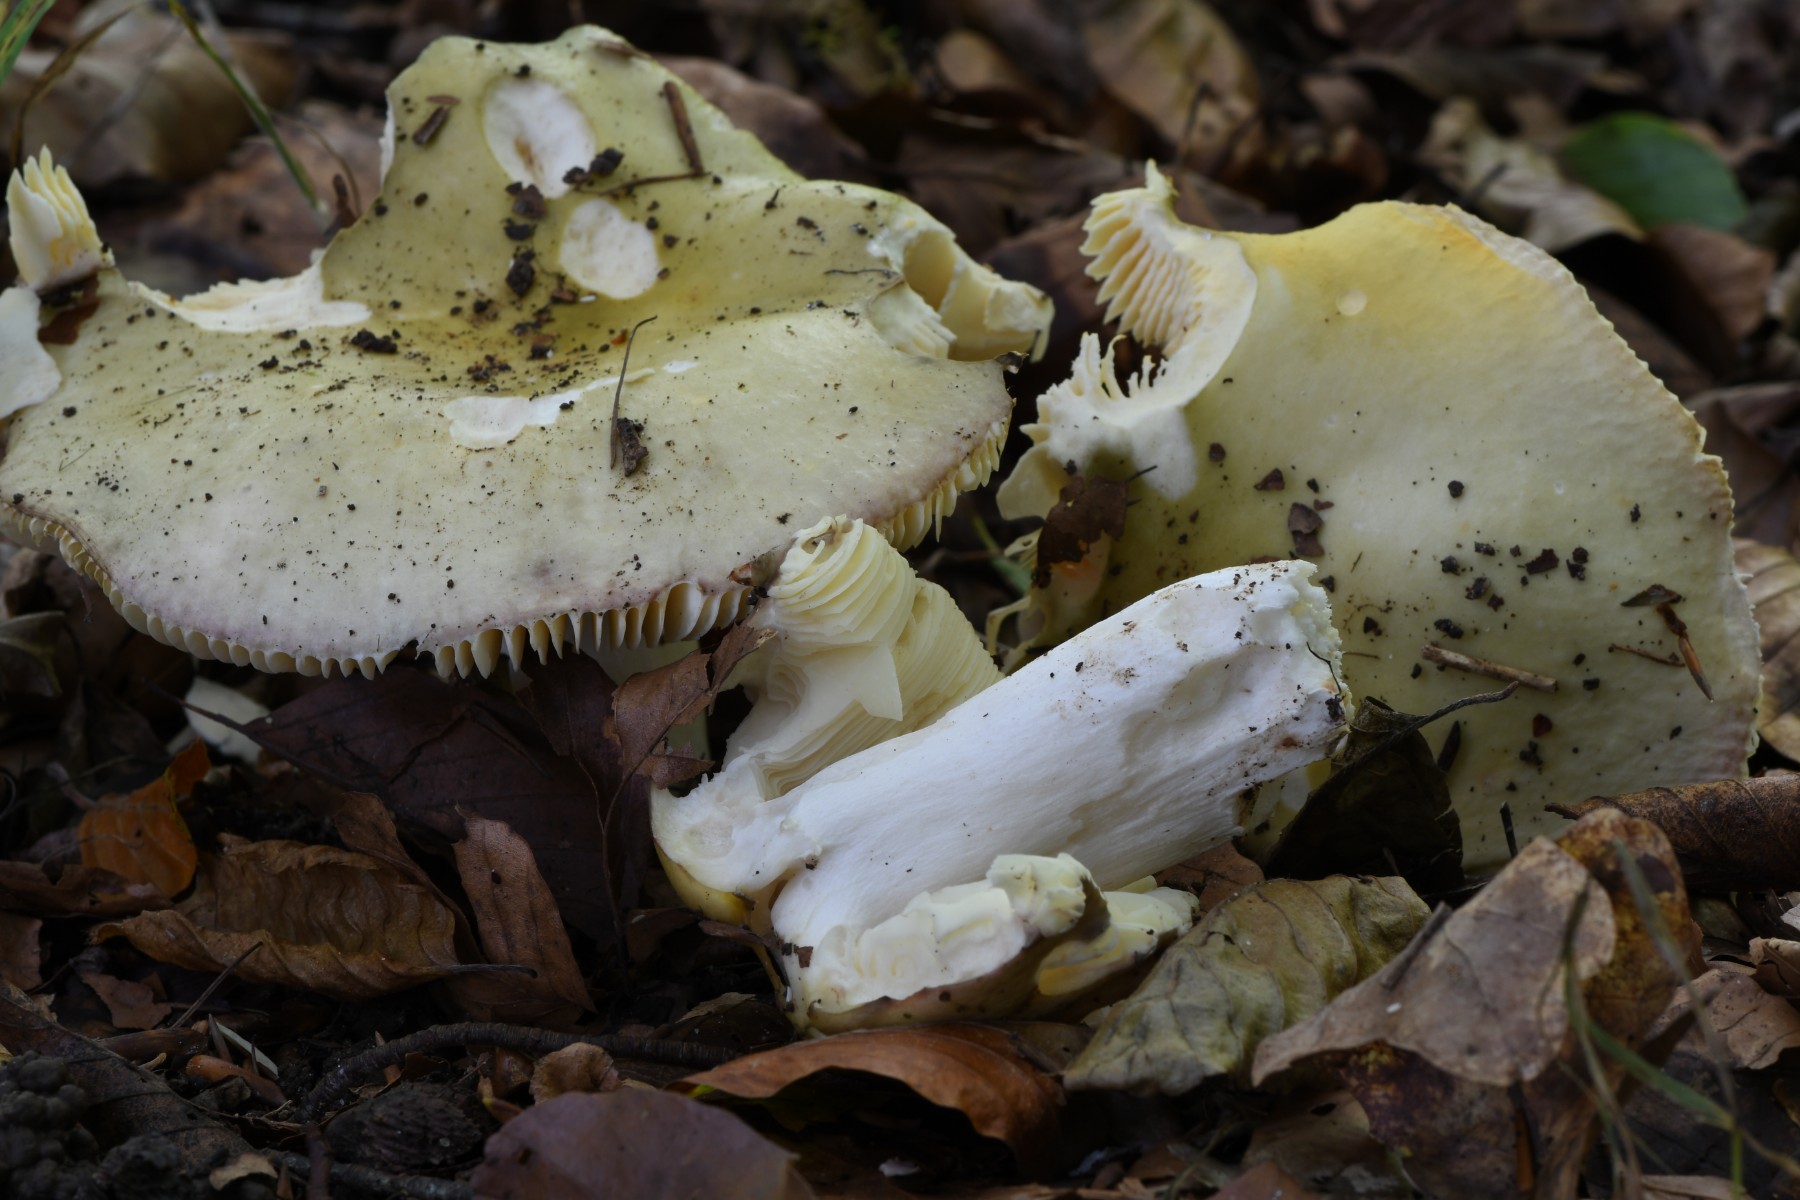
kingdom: Fungi
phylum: Basidiomycota
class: Agaricomycetes
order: Russulales
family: Russulaceae
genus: Russula
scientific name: Russula romellii
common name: romells skørhat
